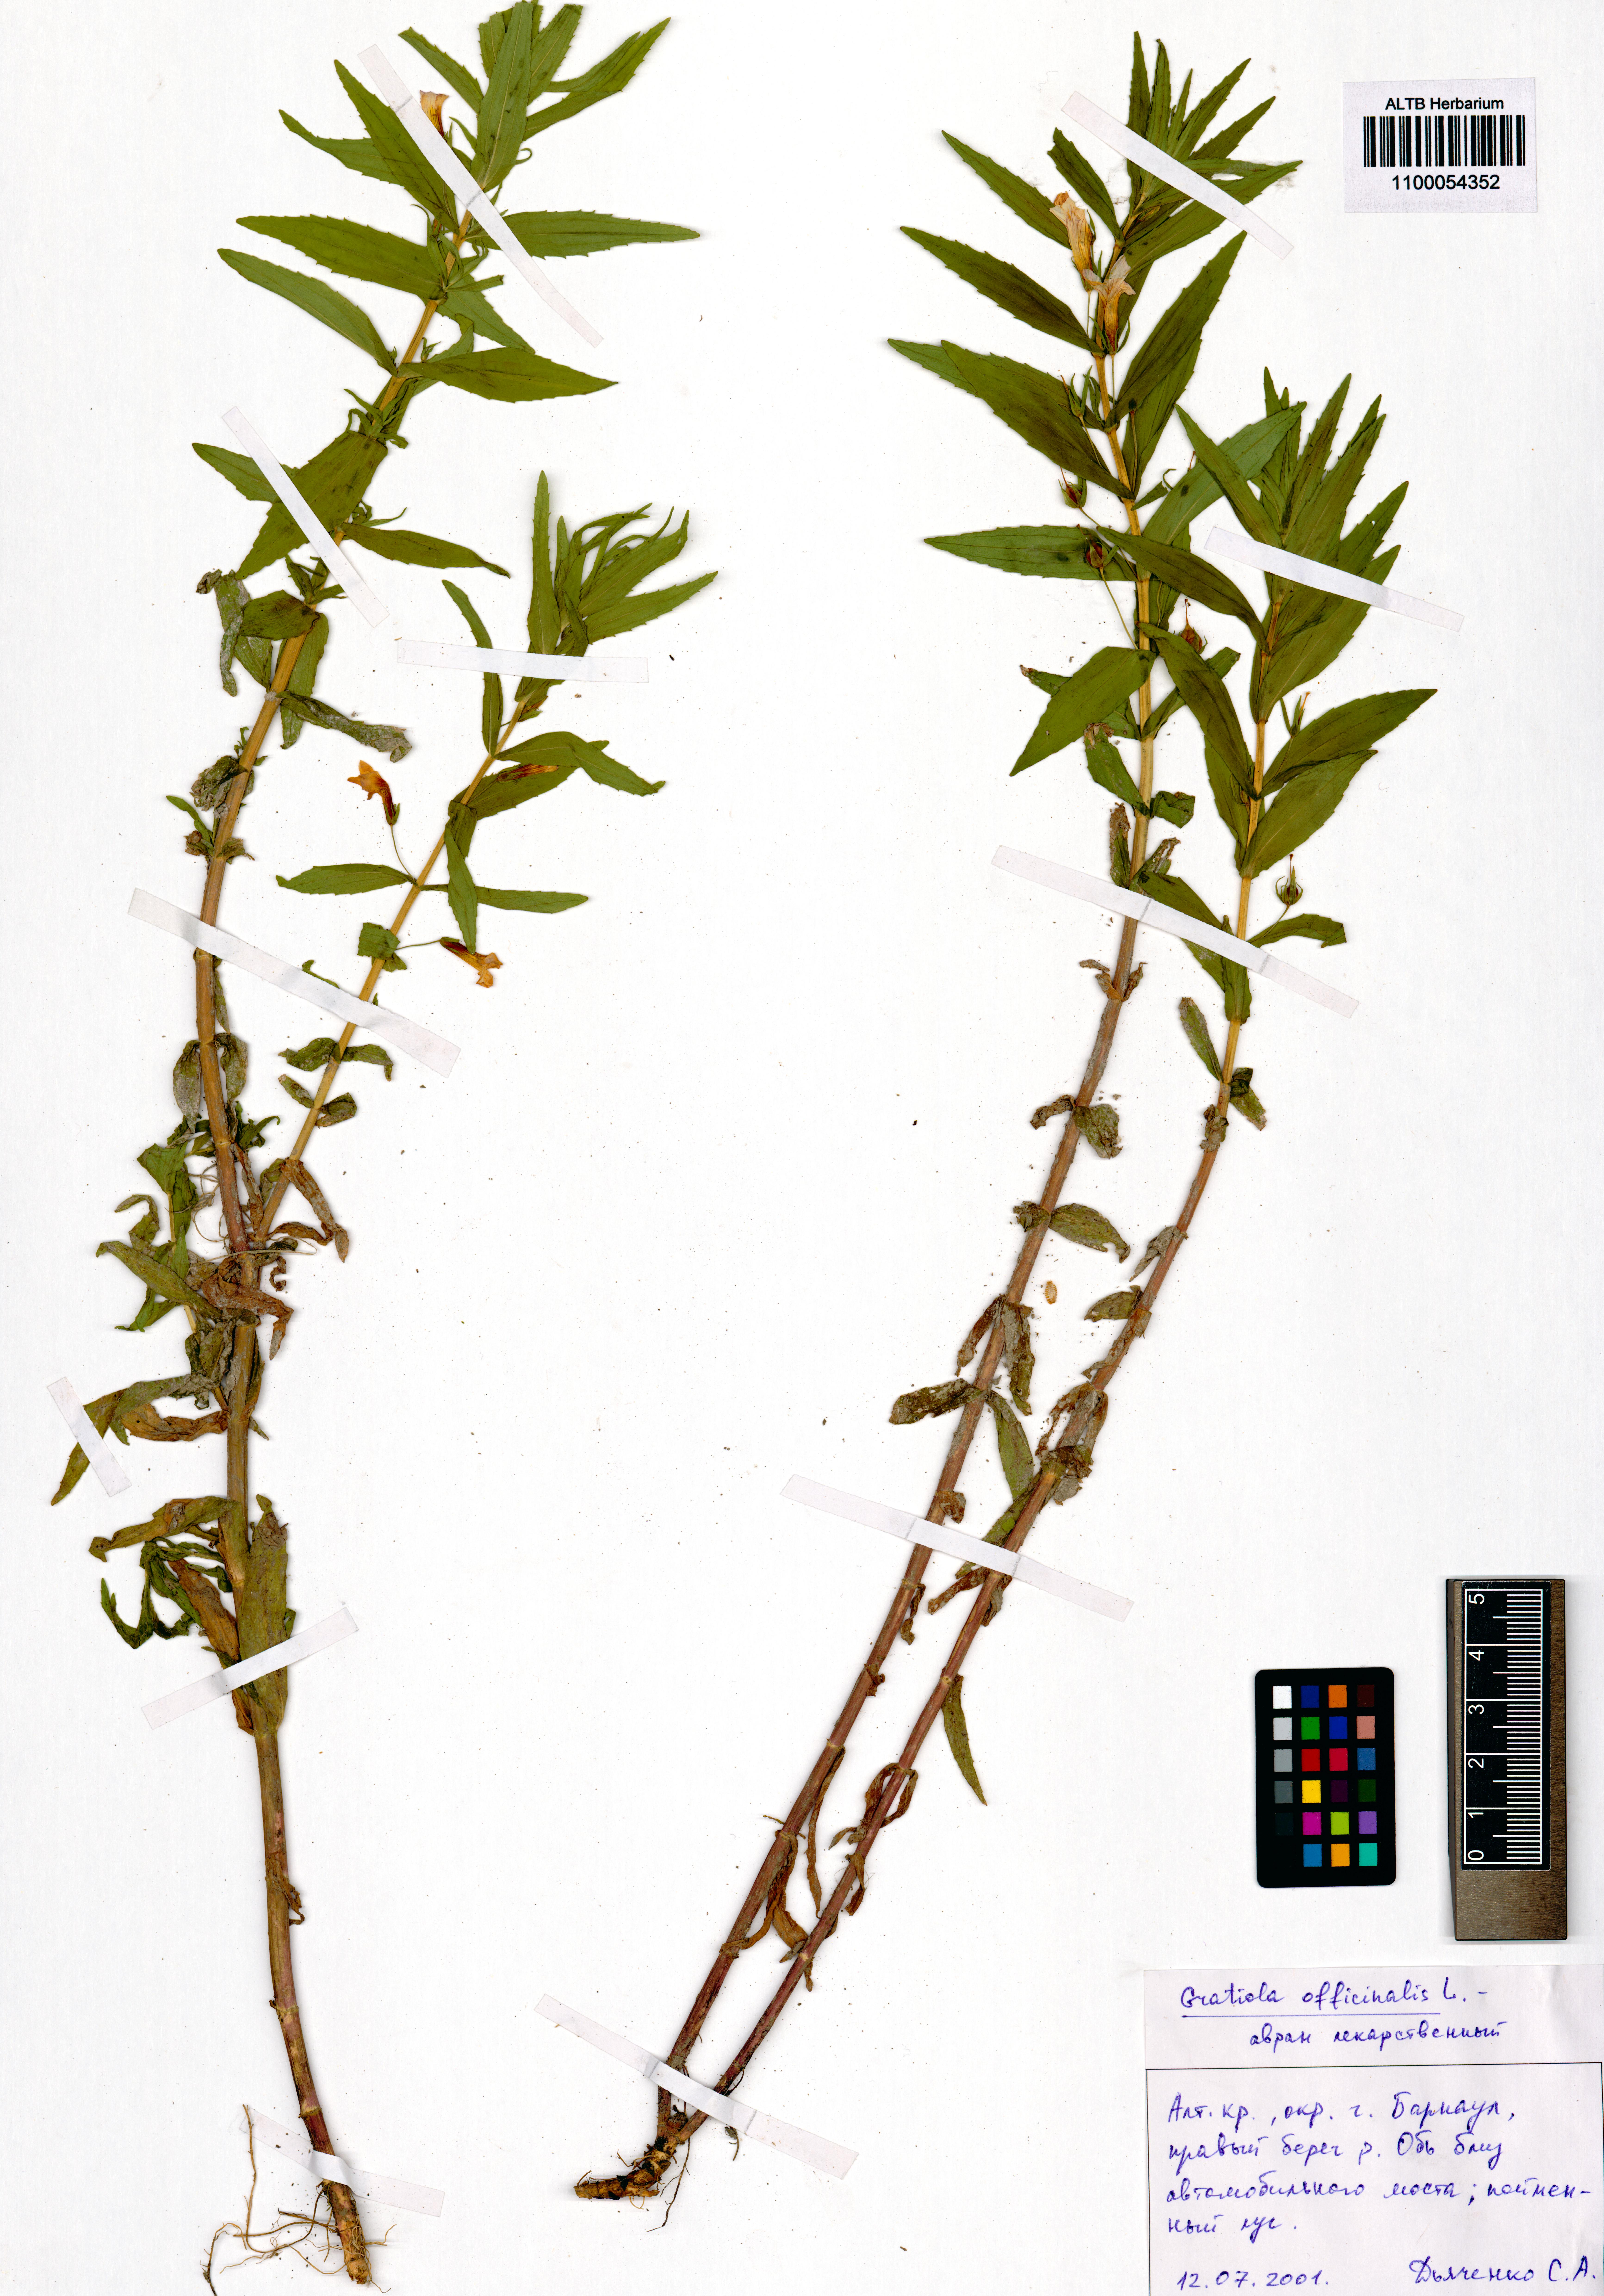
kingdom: Plantae
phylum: Tracheophyta
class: Magnoliopsida
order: Lamiales
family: Plantaginaceae
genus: Gratiola
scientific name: Gratiola officinalis
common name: Gratiola
